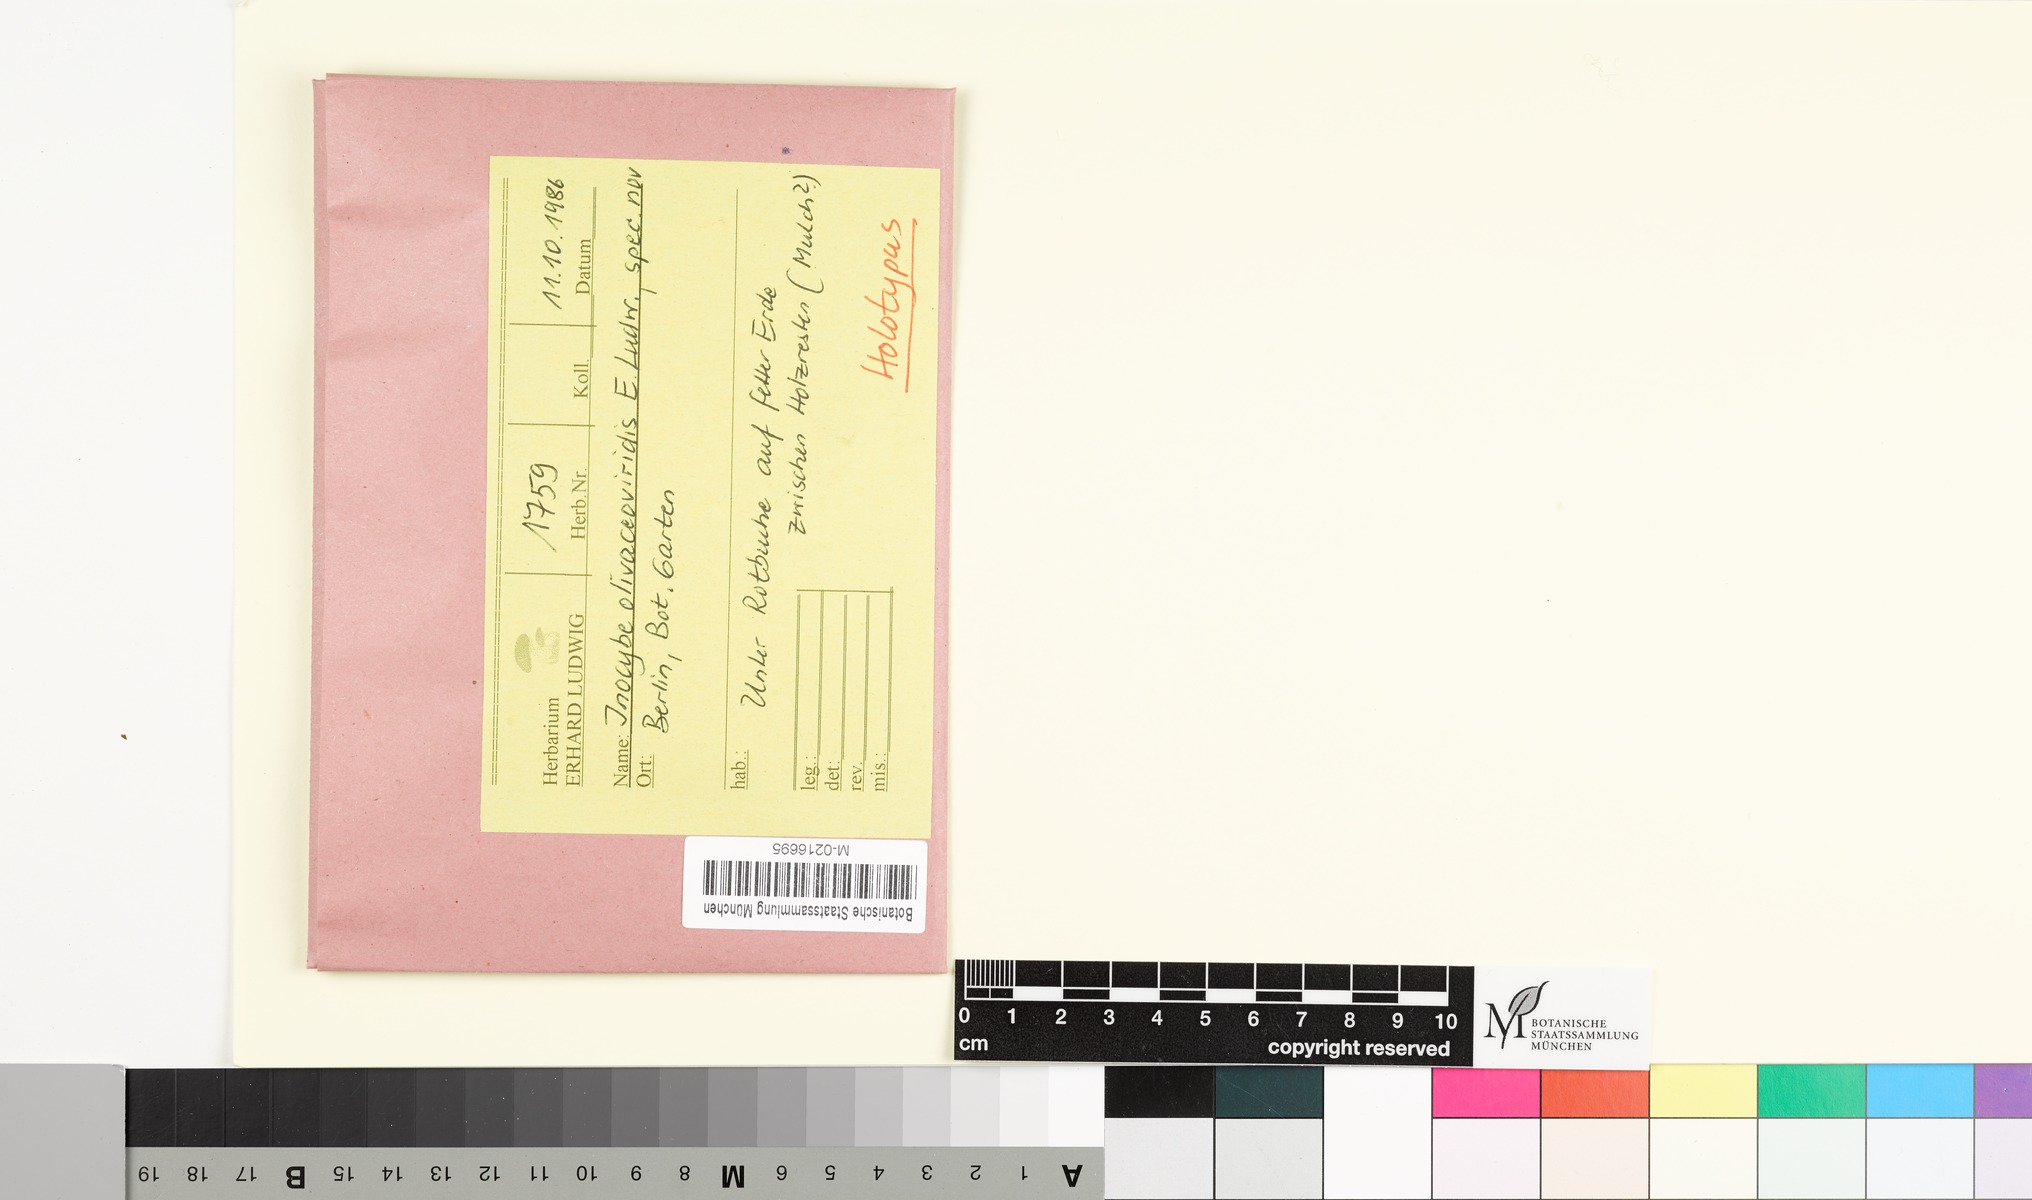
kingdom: Fungi
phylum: Basidiomycota
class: Agaricomycetes
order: Agaricales
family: Inocybaceae
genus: Inocybe
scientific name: Inocybe olivaceoviridis
